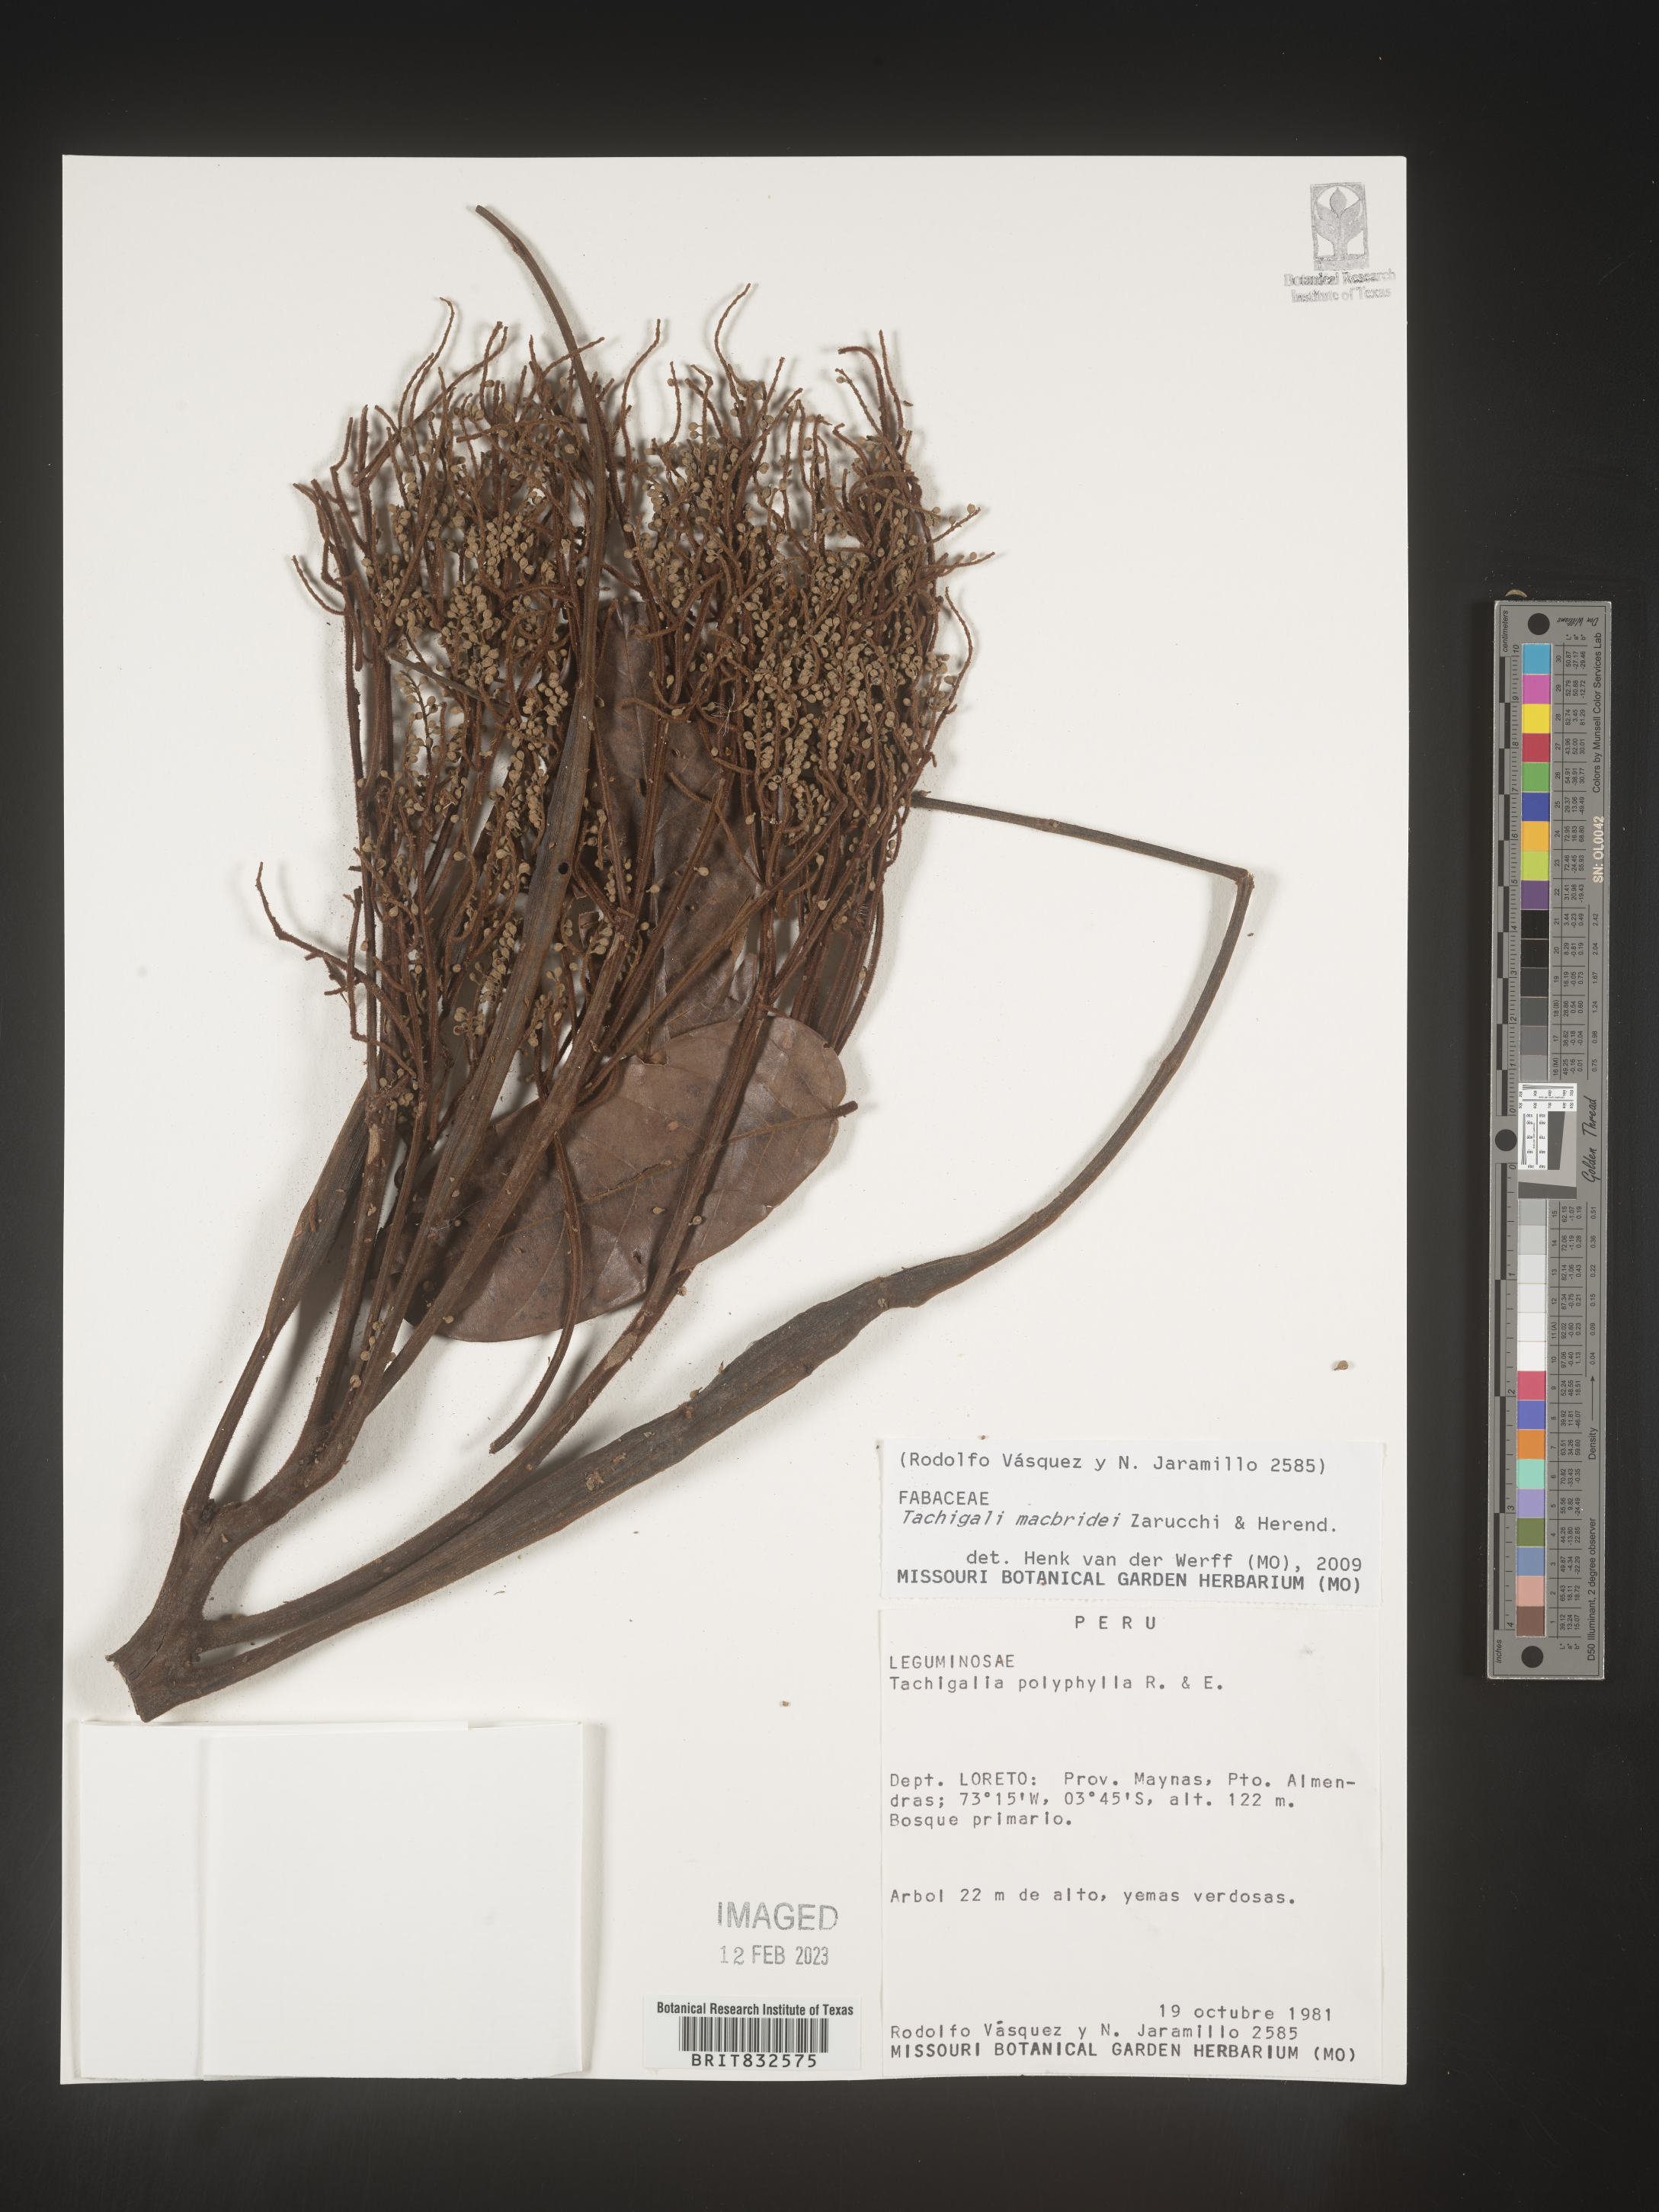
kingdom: Plantae
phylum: Tracheophyta
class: Magnoliopsida
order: Fabales
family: Fabaceae
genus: Tachigali
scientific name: Tachigali macbridei
